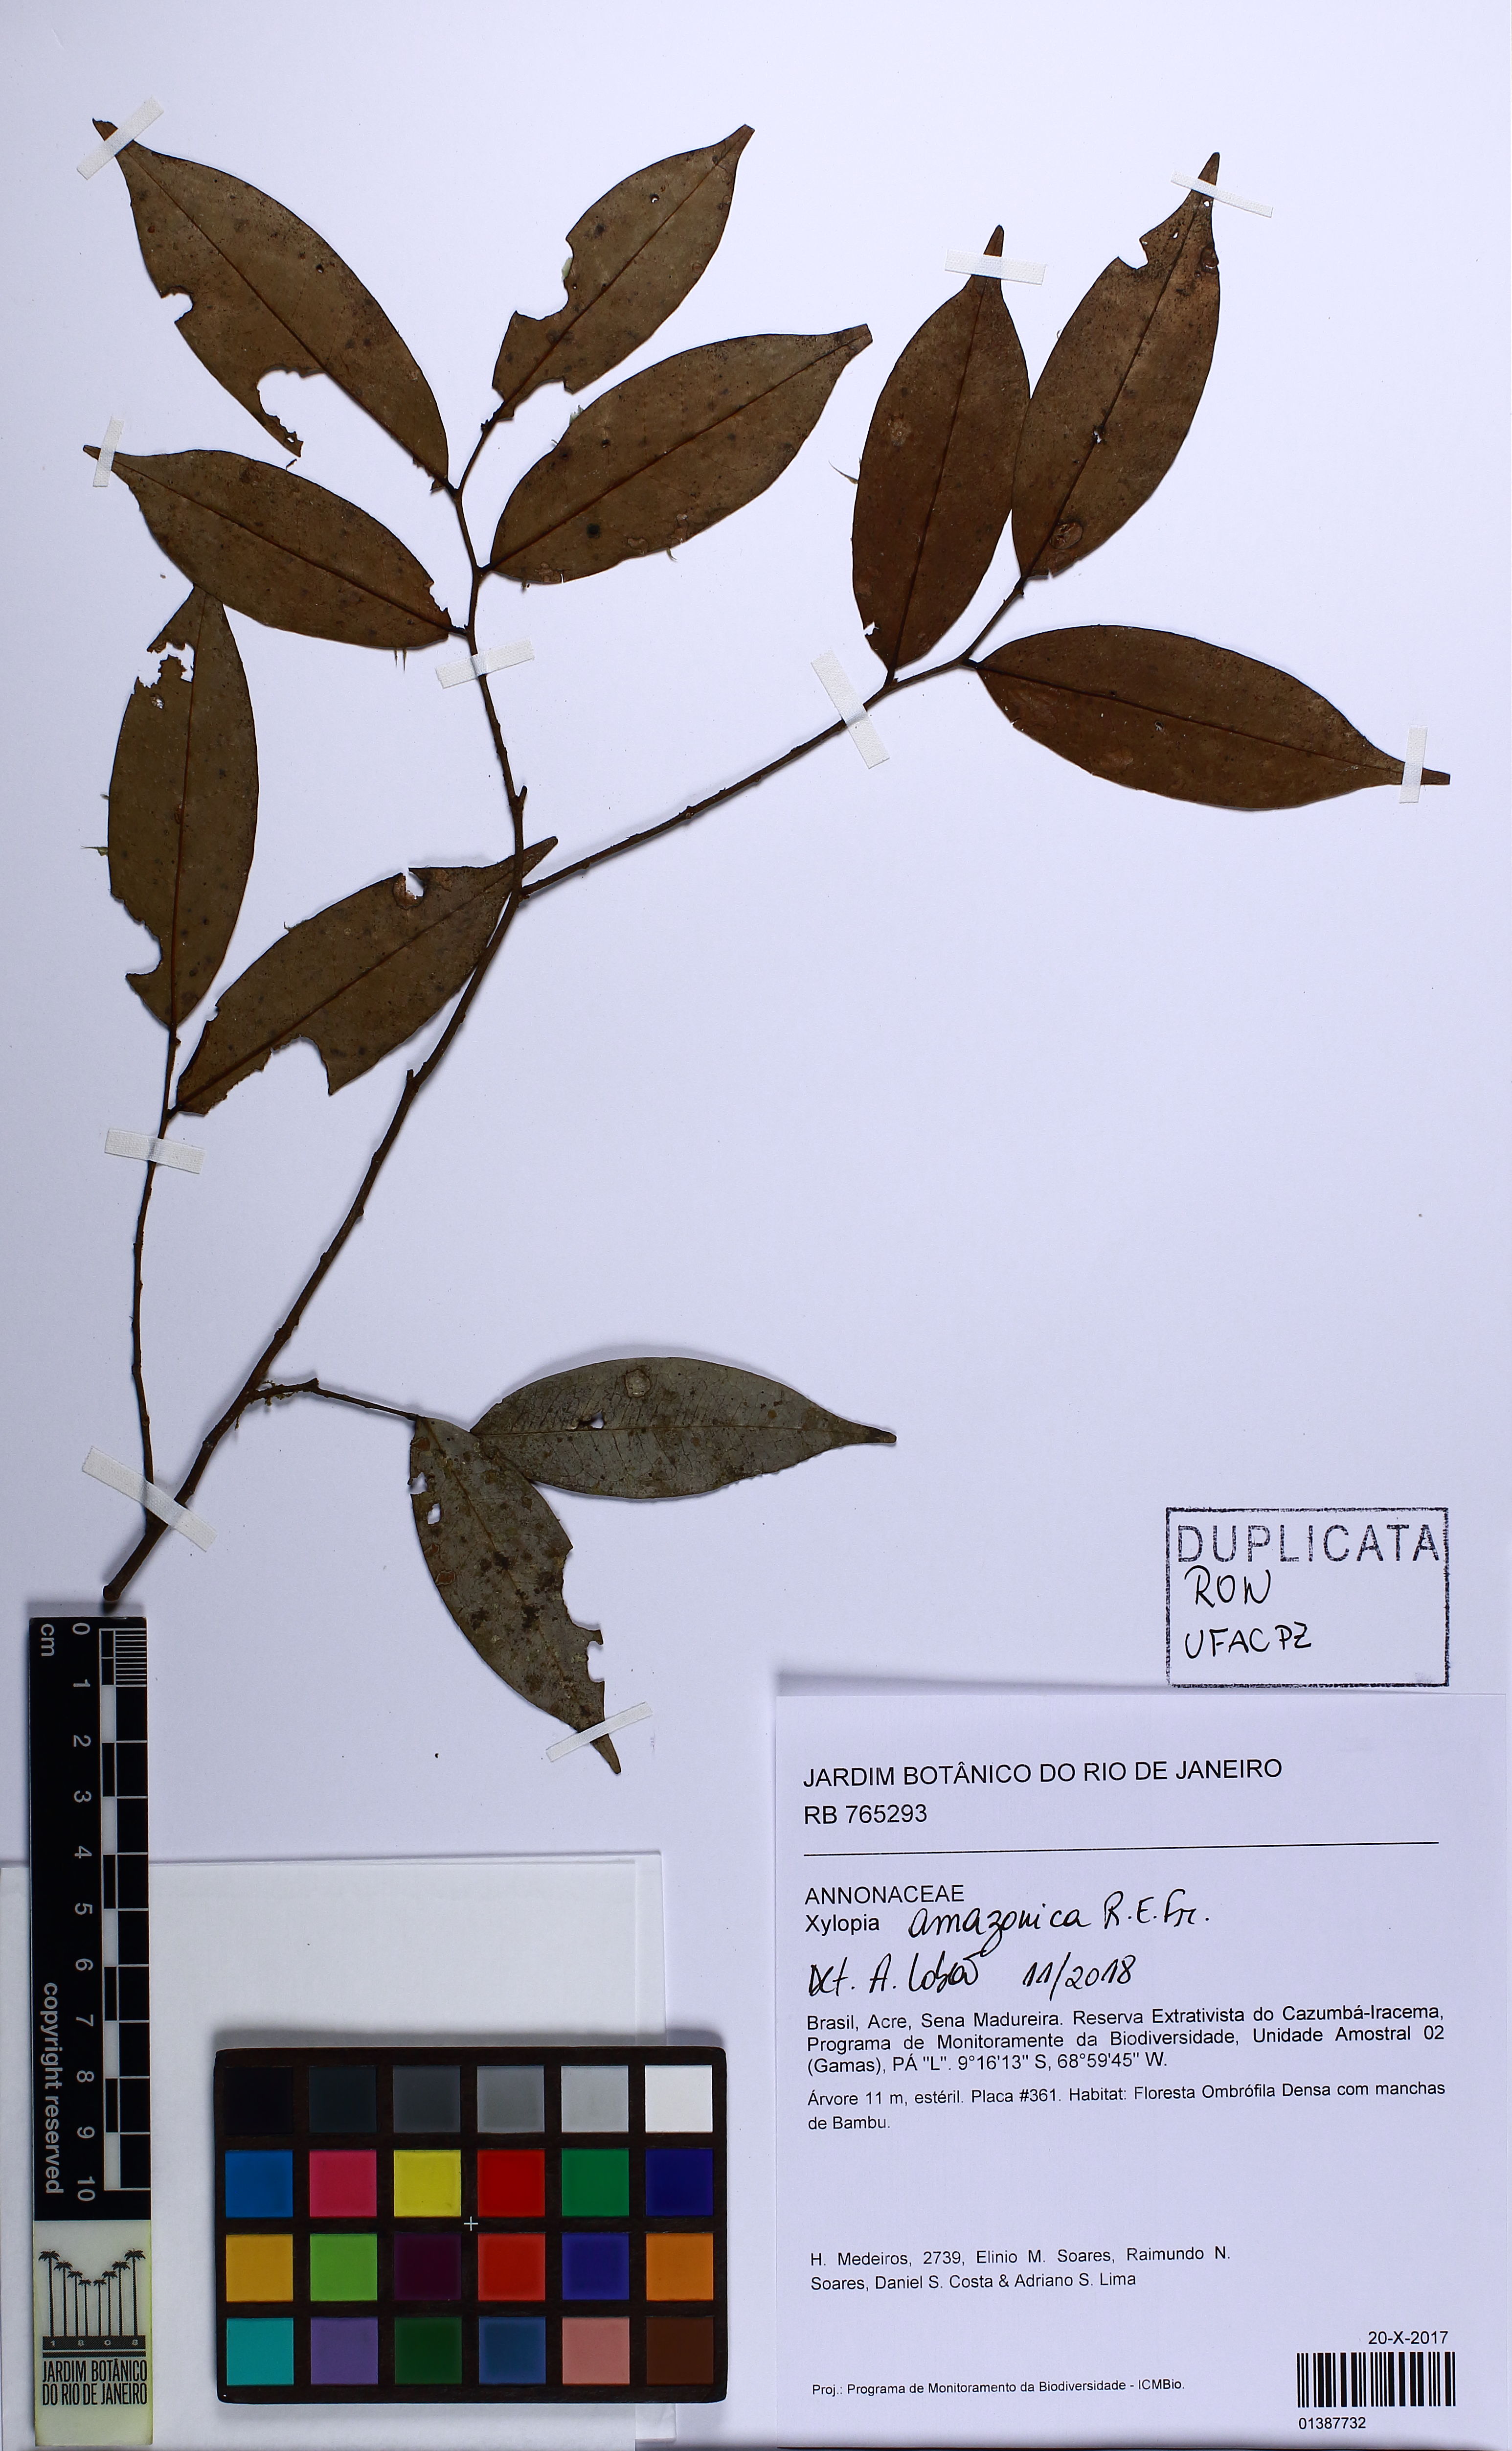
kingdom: Plantae
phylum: Tracheophyta
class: Magnoliopsida
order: Magnoliales
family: Annonaceae
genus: Xylopia
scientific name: Xylopia amazonica
